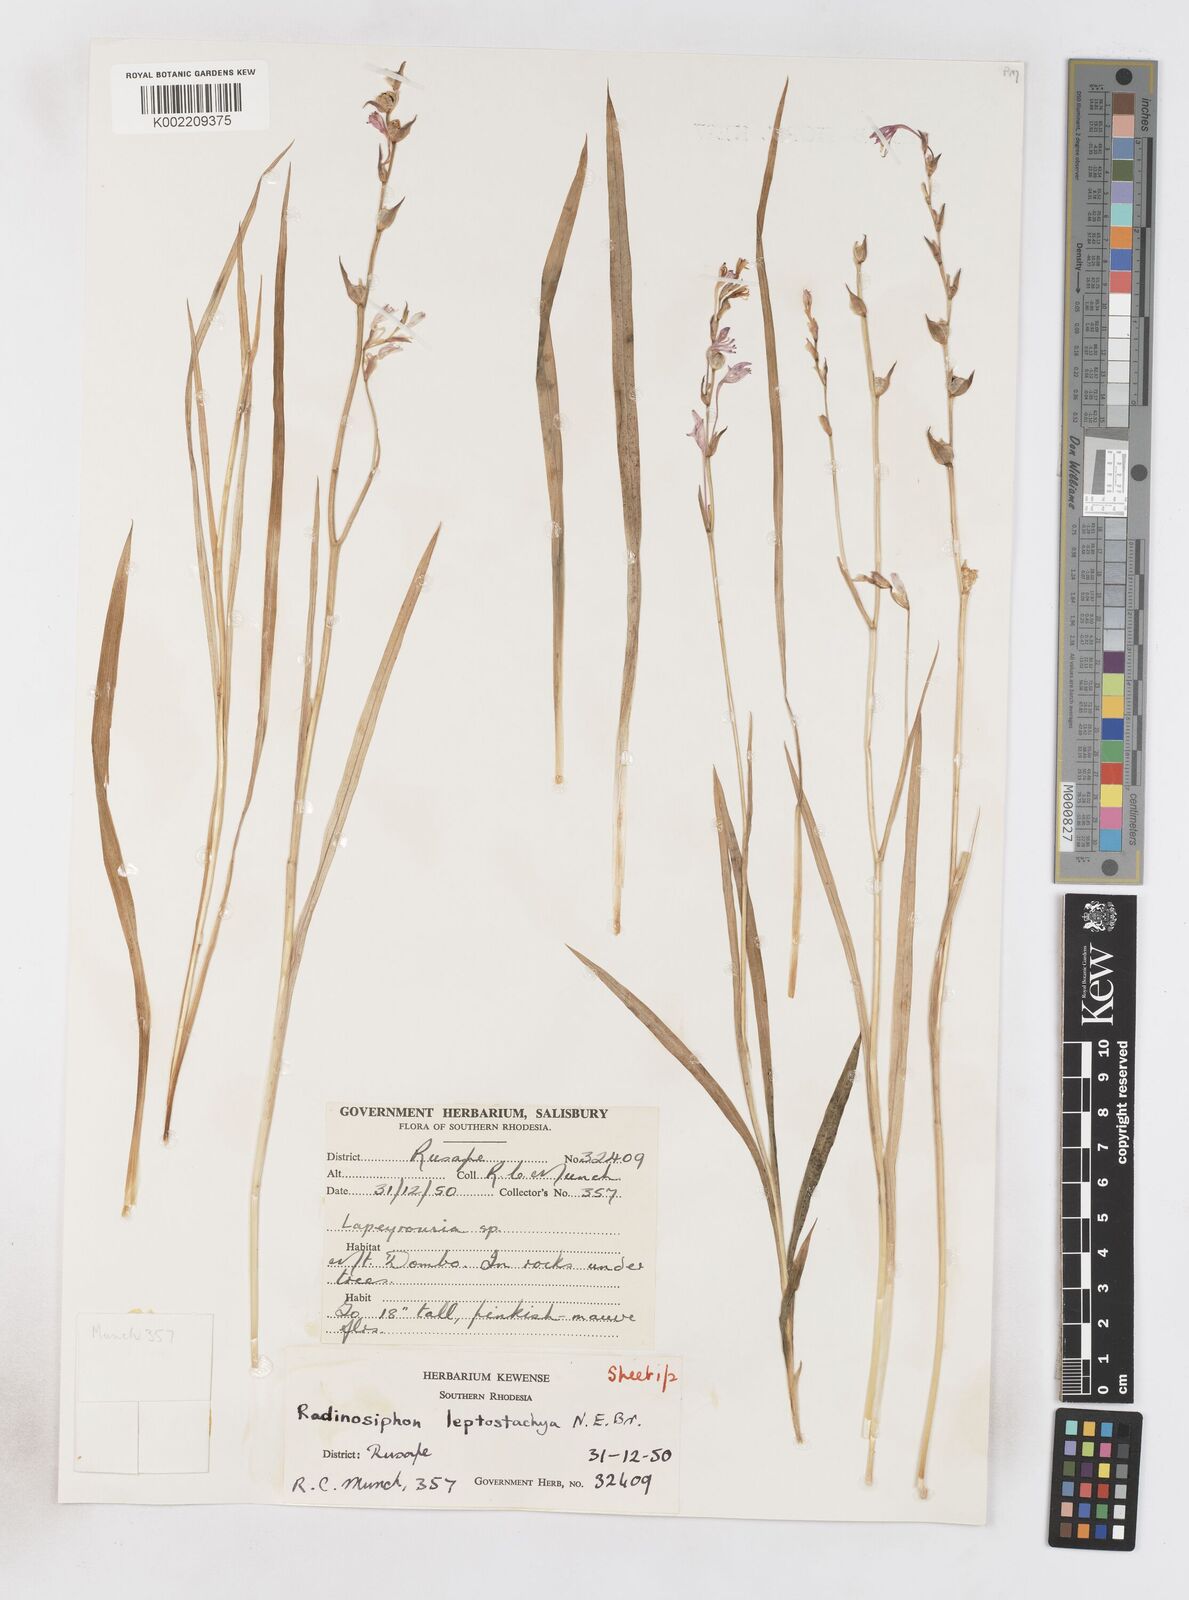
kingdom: Plantae
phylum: Tracheophyta
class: Liliopsida
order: Asparagales
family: Iridaceae
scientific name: Iridaceae
